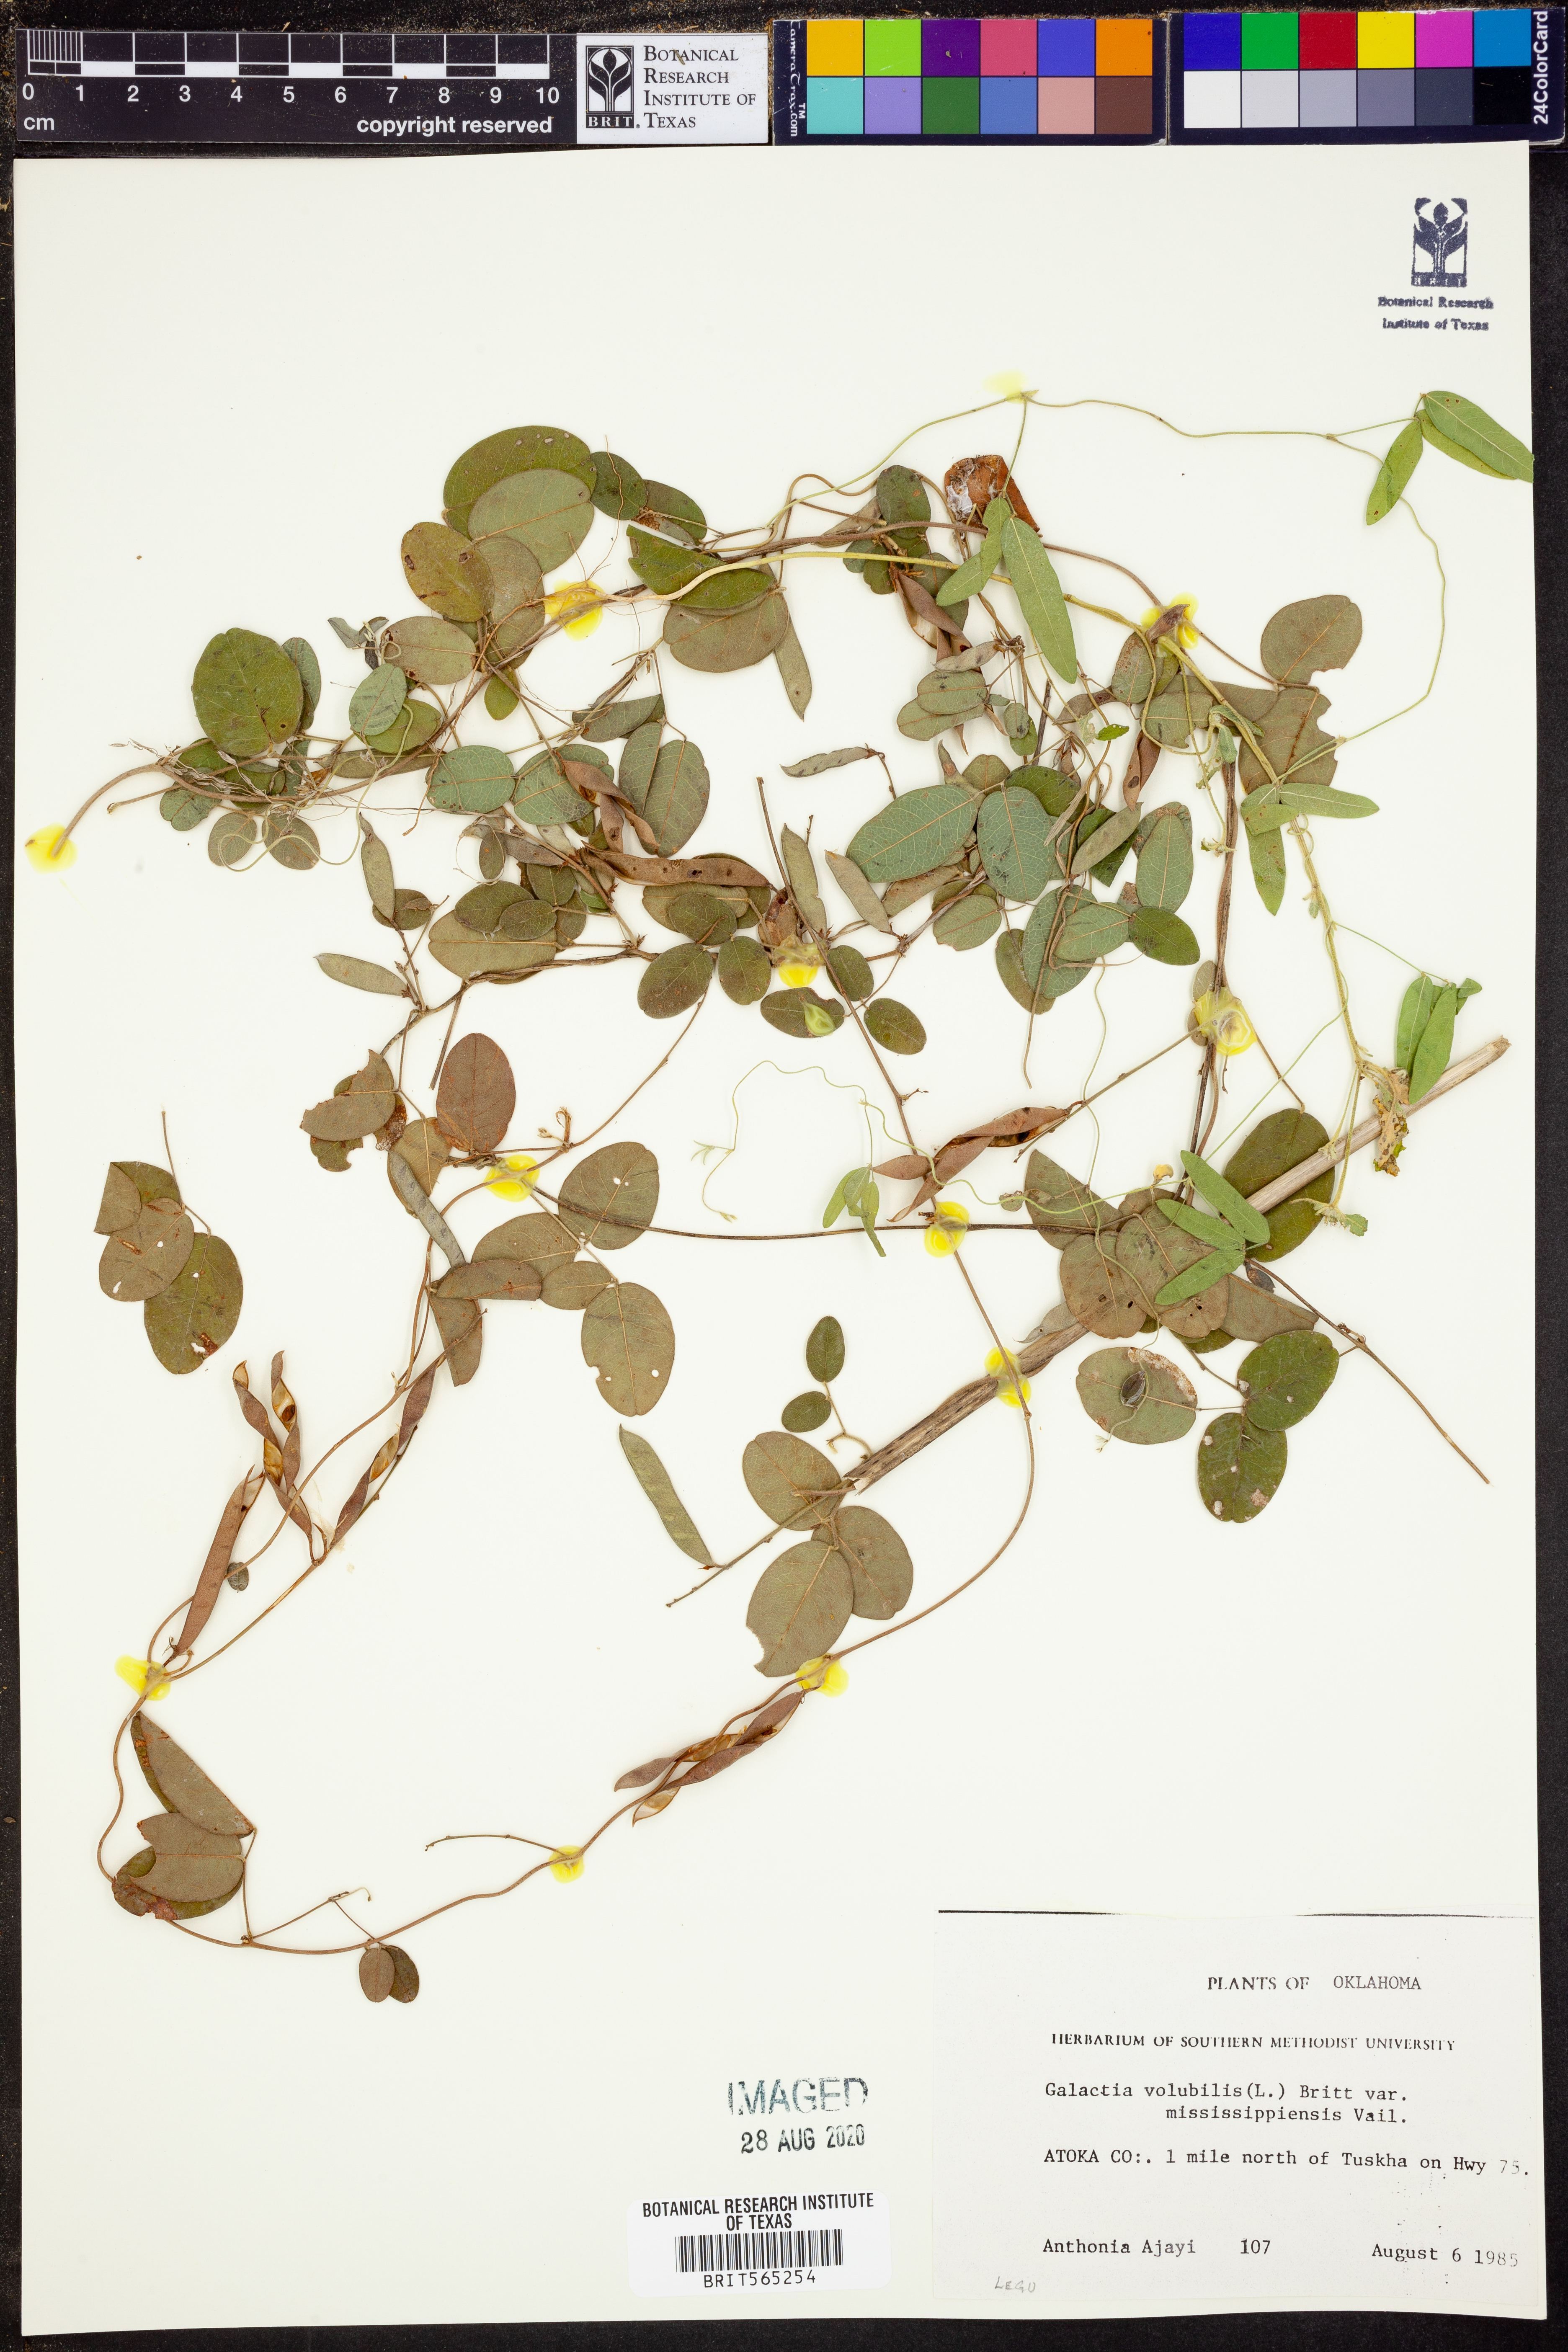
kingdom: Plantae
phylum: Tracheophyta
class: Magnoliopsida
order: Fabales
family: Fabaceae
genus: Galactia
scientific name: Galactia volubilis
